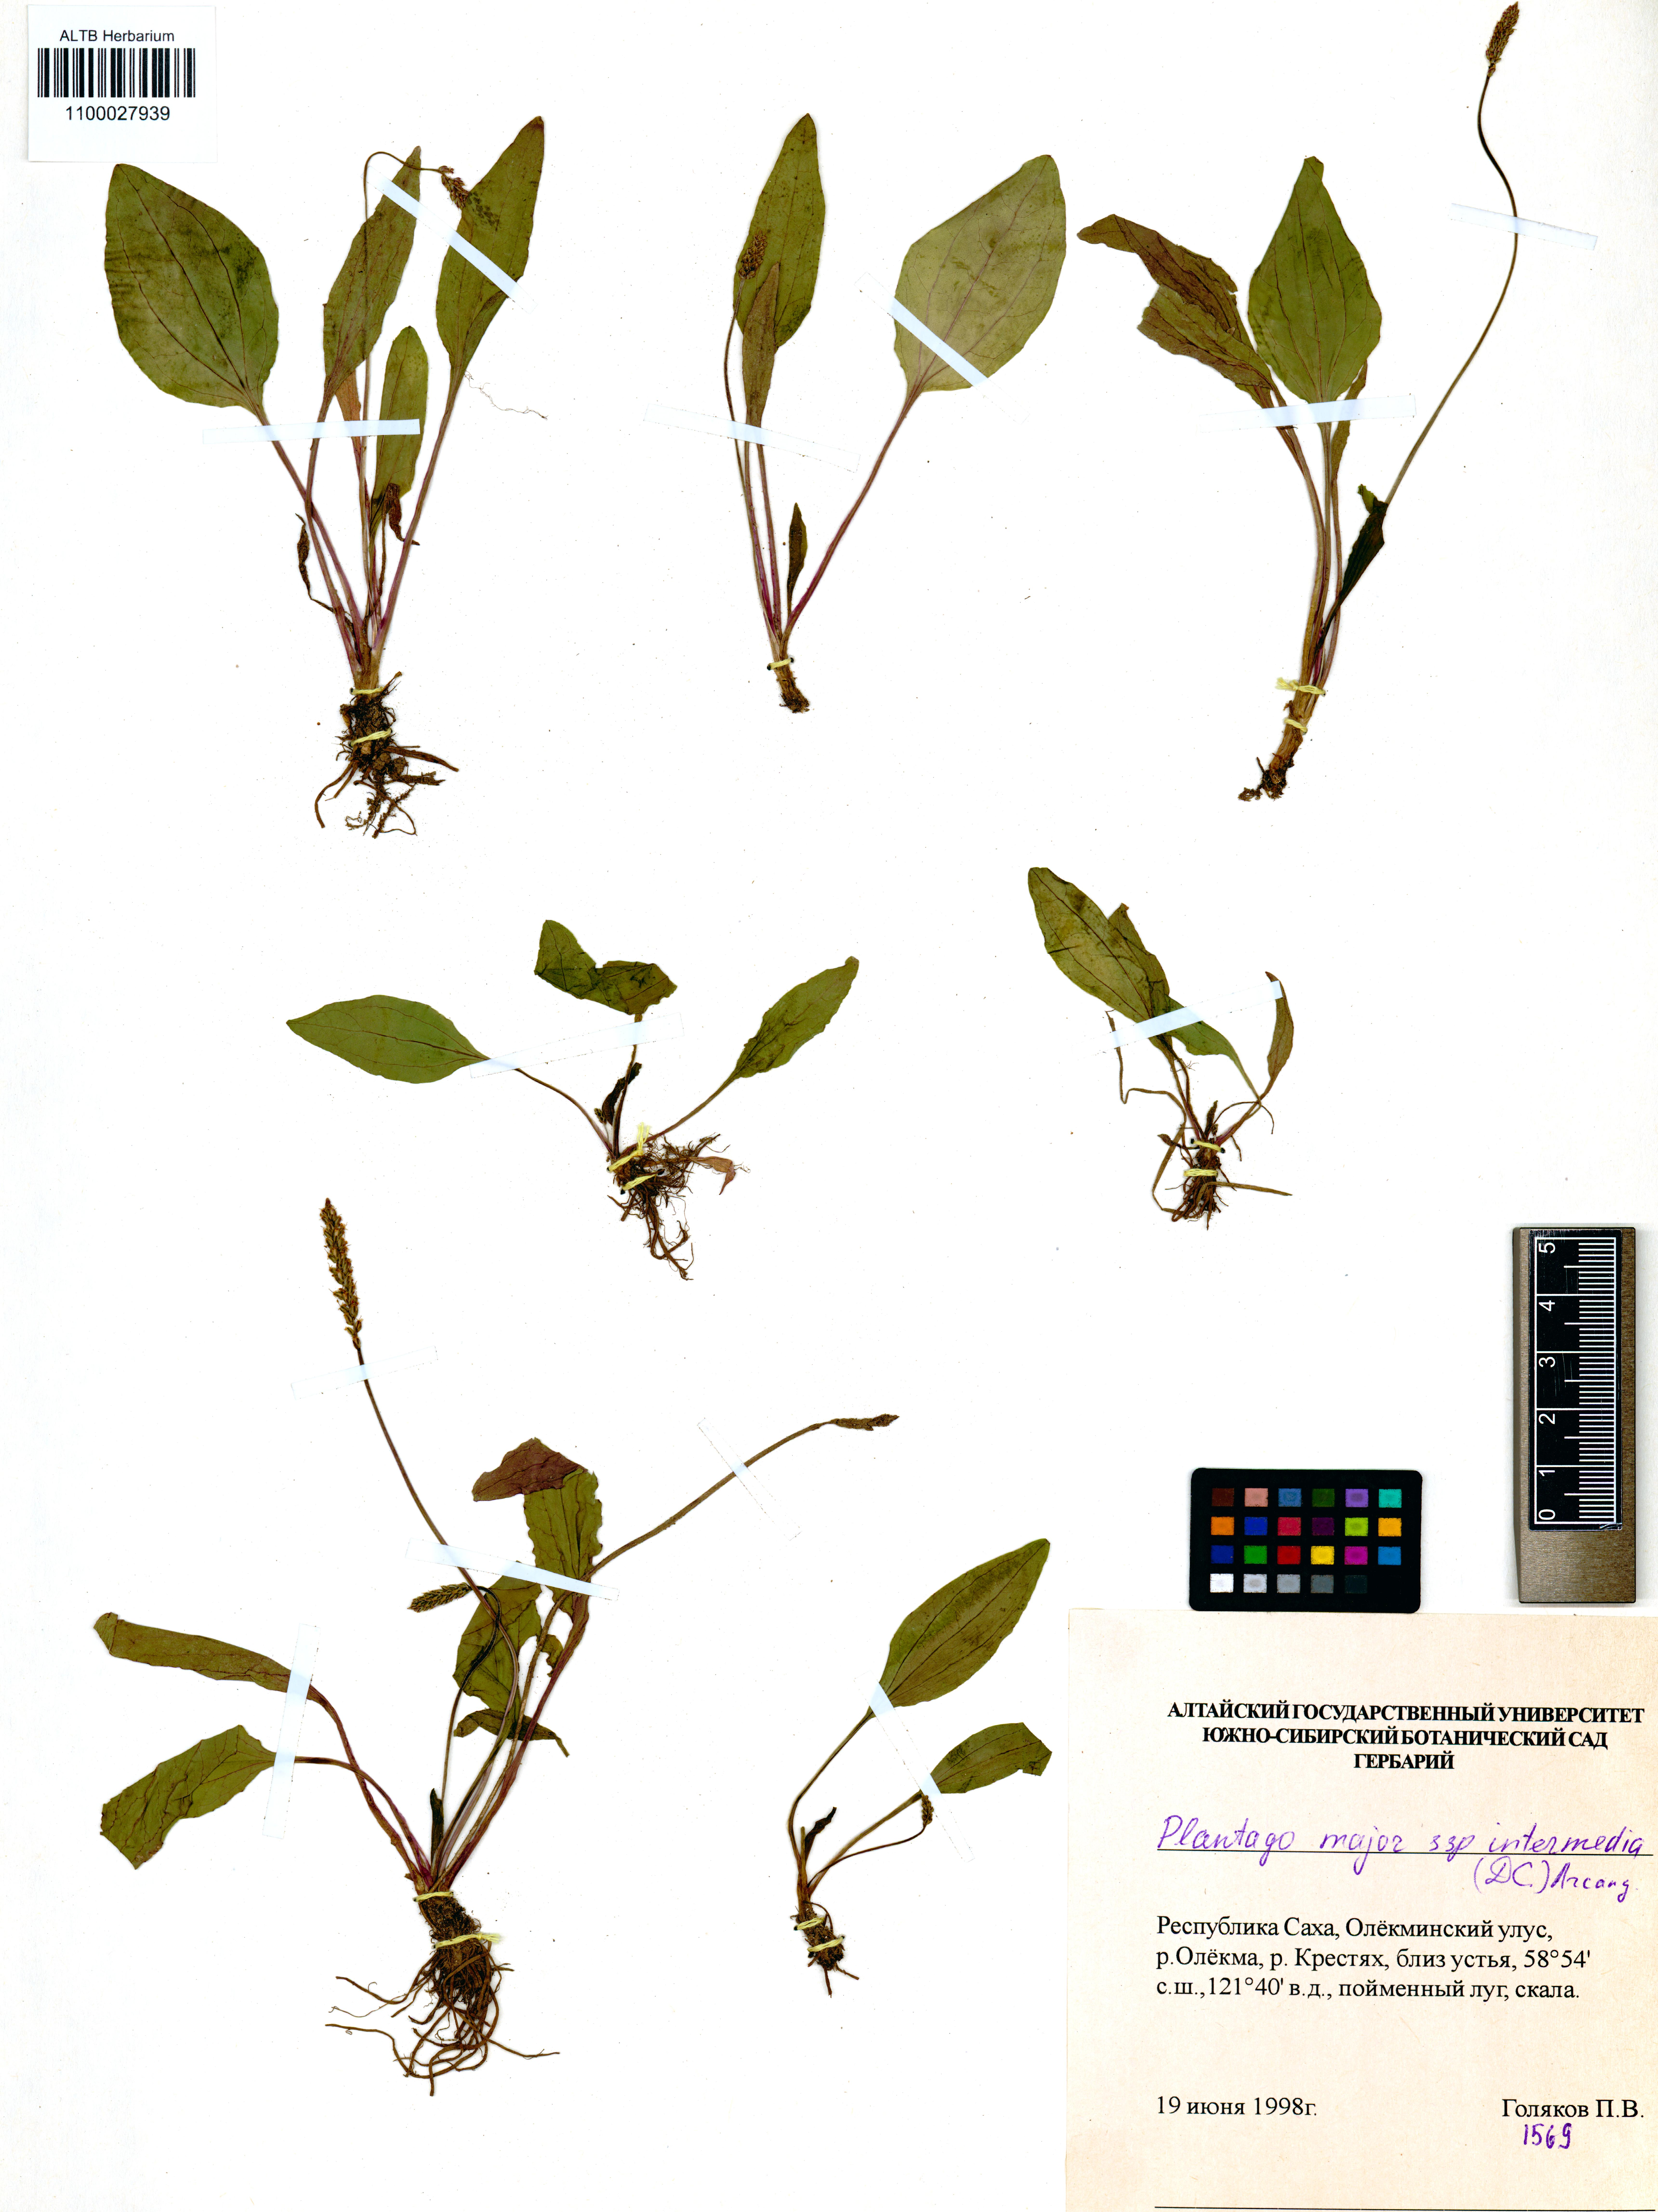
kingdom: Plantae
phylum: Tracheophyta
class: Magnoliopsida
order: Lamiales
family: Plantaginaceae
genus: Plantago
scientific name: Plantago uliginosa
